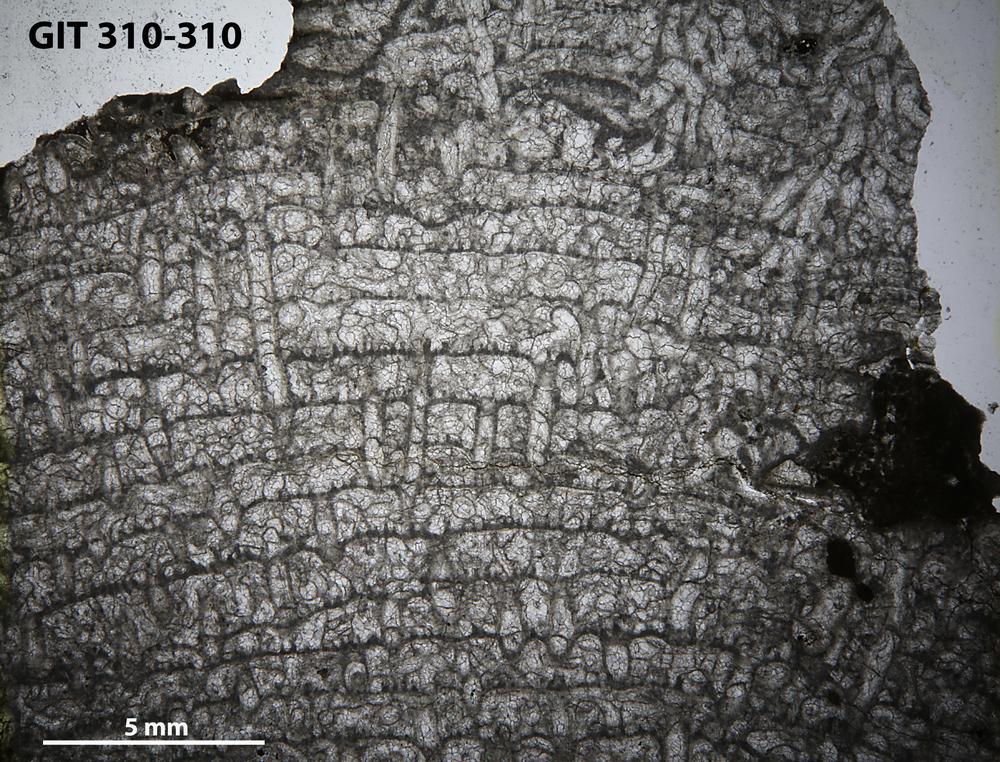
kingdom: Animalia
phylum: Cnidaria
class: Anthozoa
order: Heliolitina
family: Heliolitidae
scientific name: Heliolitidae
